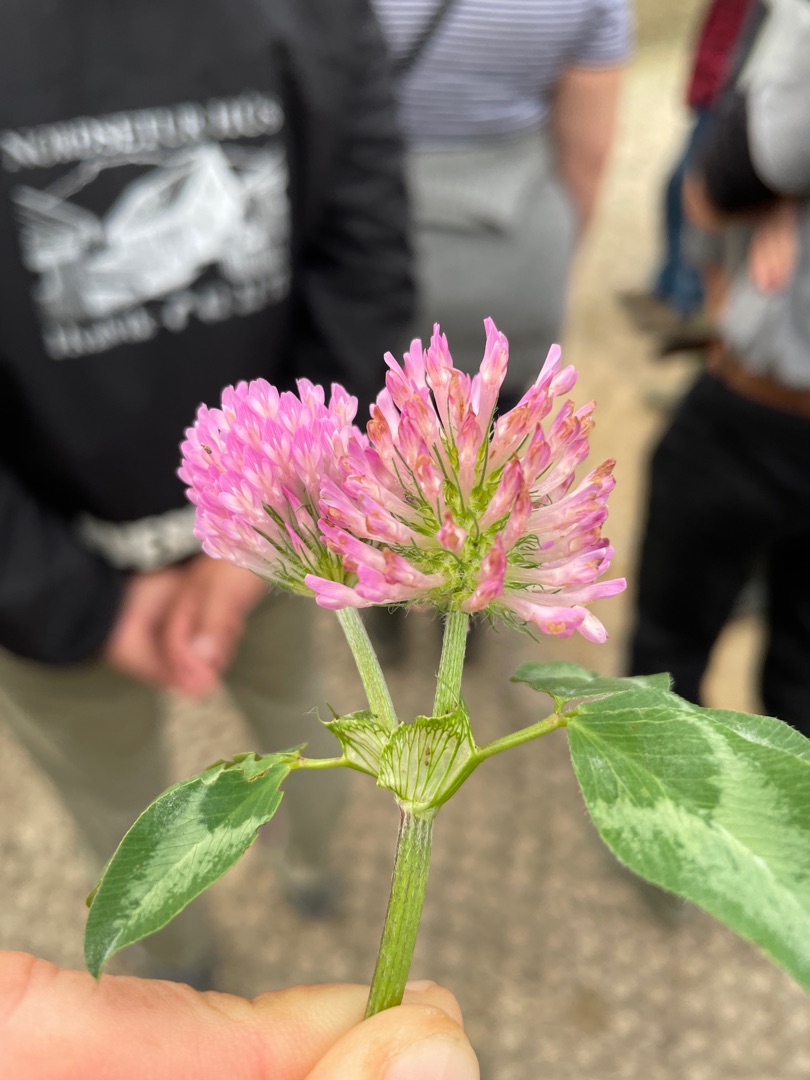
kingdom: Plantae
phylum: Tracheophyta
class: Magnoliopsida
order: Fabales
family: Fabaceae
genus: Trifolium
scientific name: Trifolium pratense
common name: Rød-kløver
